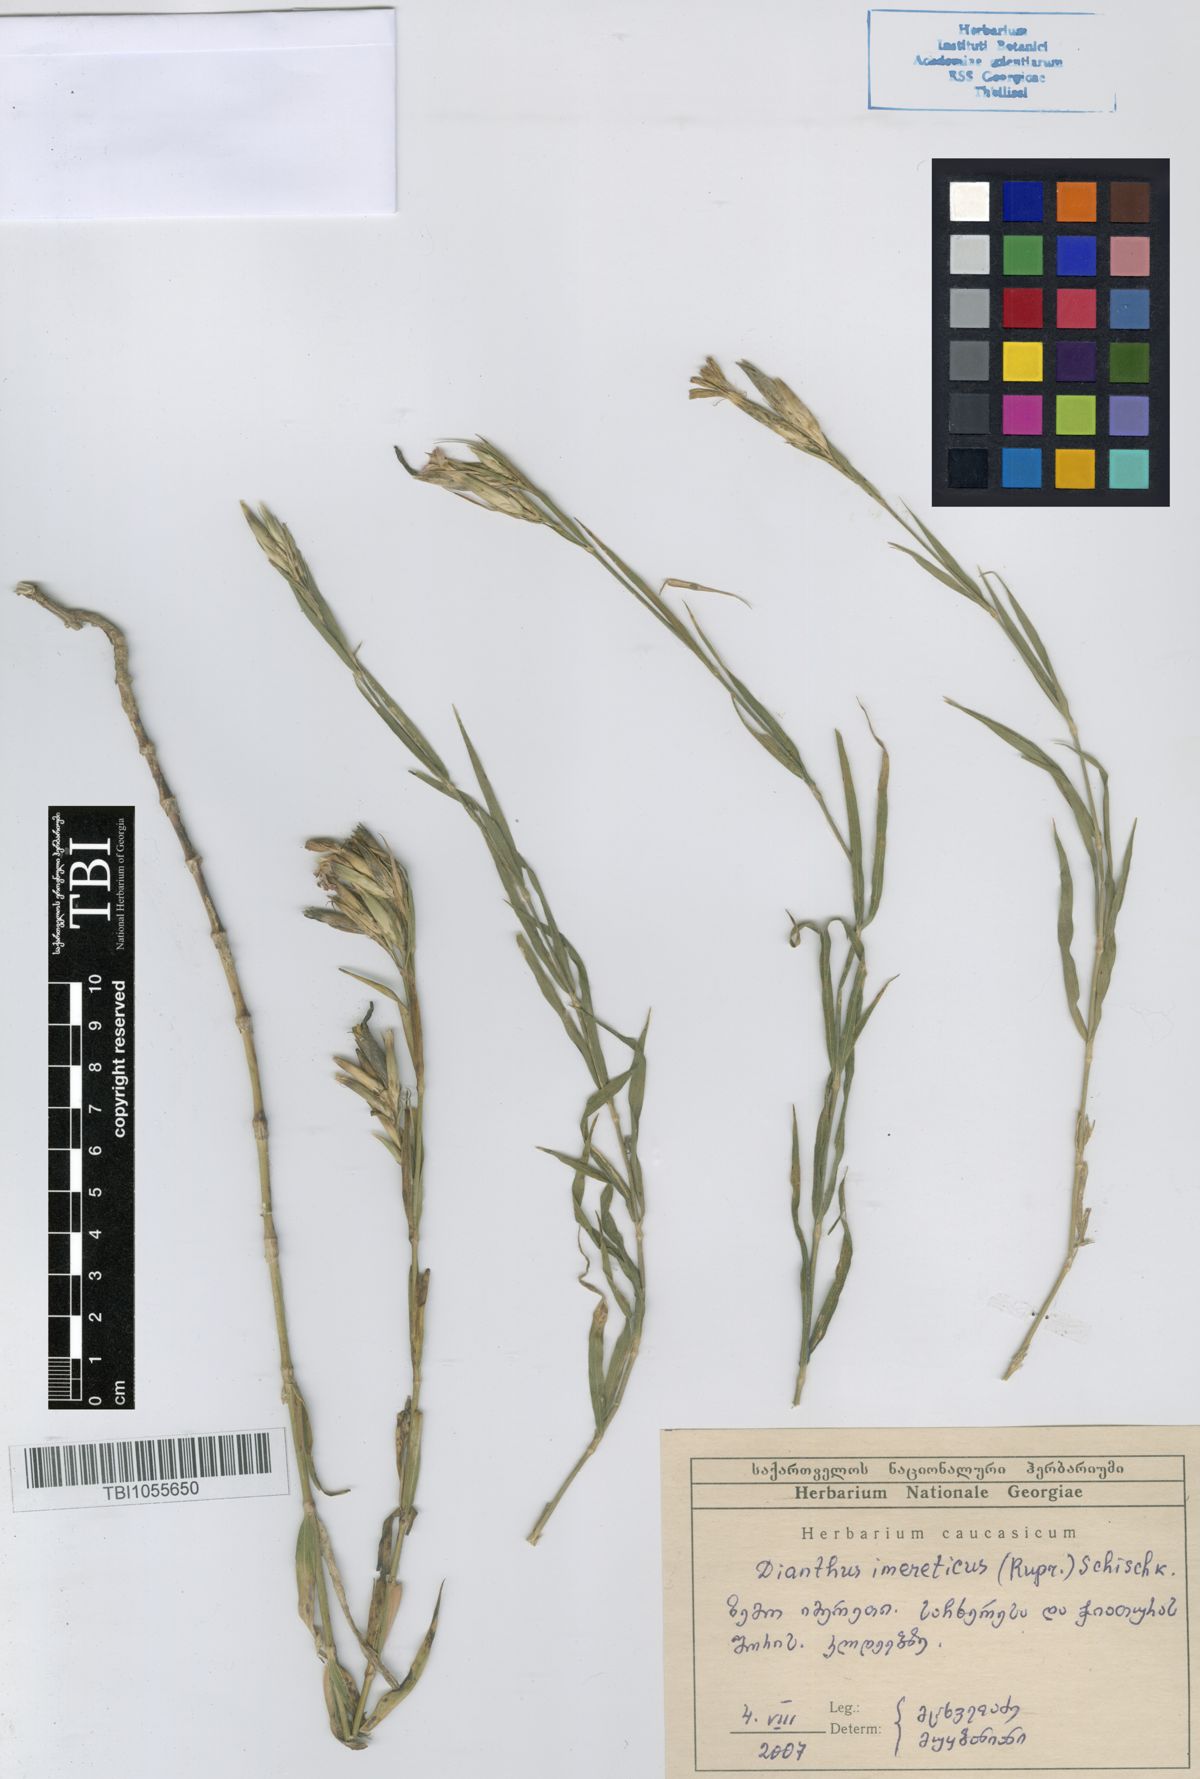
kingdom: Plantae
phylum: Tracheophyta
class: Magnoliopsida
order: Caryophyllales
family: Caryophyllaceae
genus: Dianthus
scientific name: Dianthus imereticus
